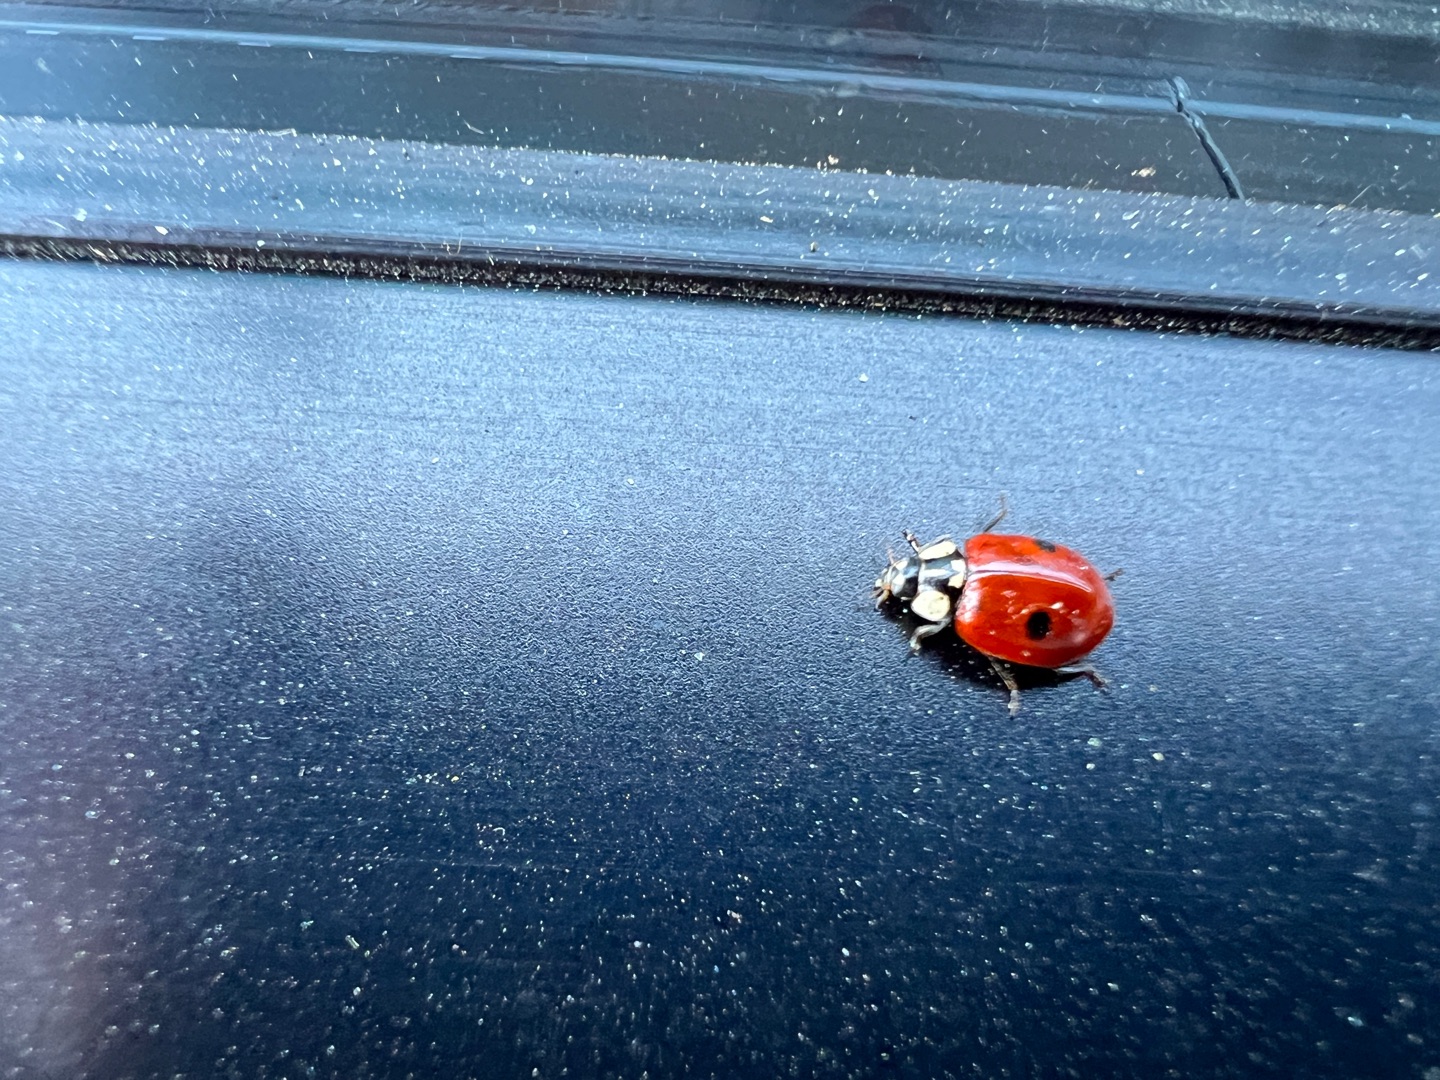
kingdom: Animalia
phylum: Arthropoda
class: Insecta
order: Coleoptera
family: Coccinellidae
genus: Adalia
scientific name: Adalia bipunctata
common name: Toplettet mariehøne
